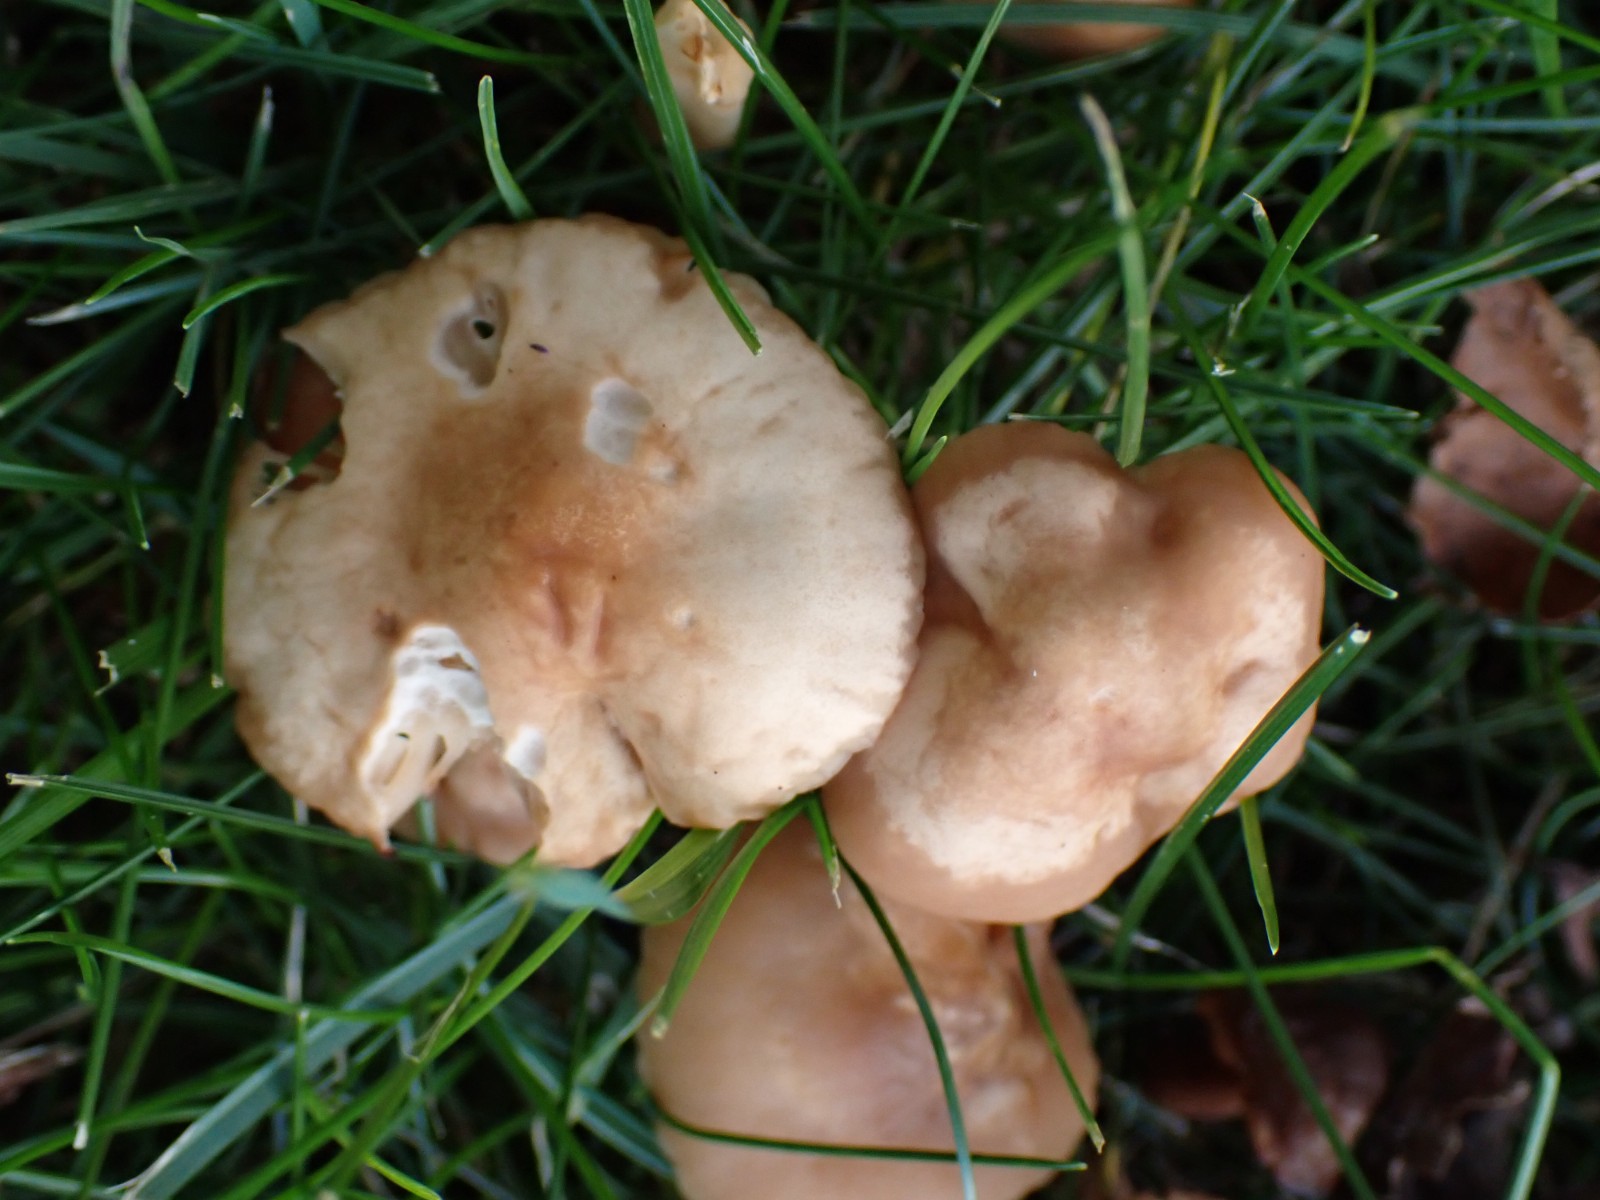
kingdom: Fungi
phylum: Basidiomycota
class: Agaricomycetes
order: Agaricales
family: Marasmiaceae
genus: Marasmius
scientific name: Marasmius oreades
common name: elledans-bruskhat
